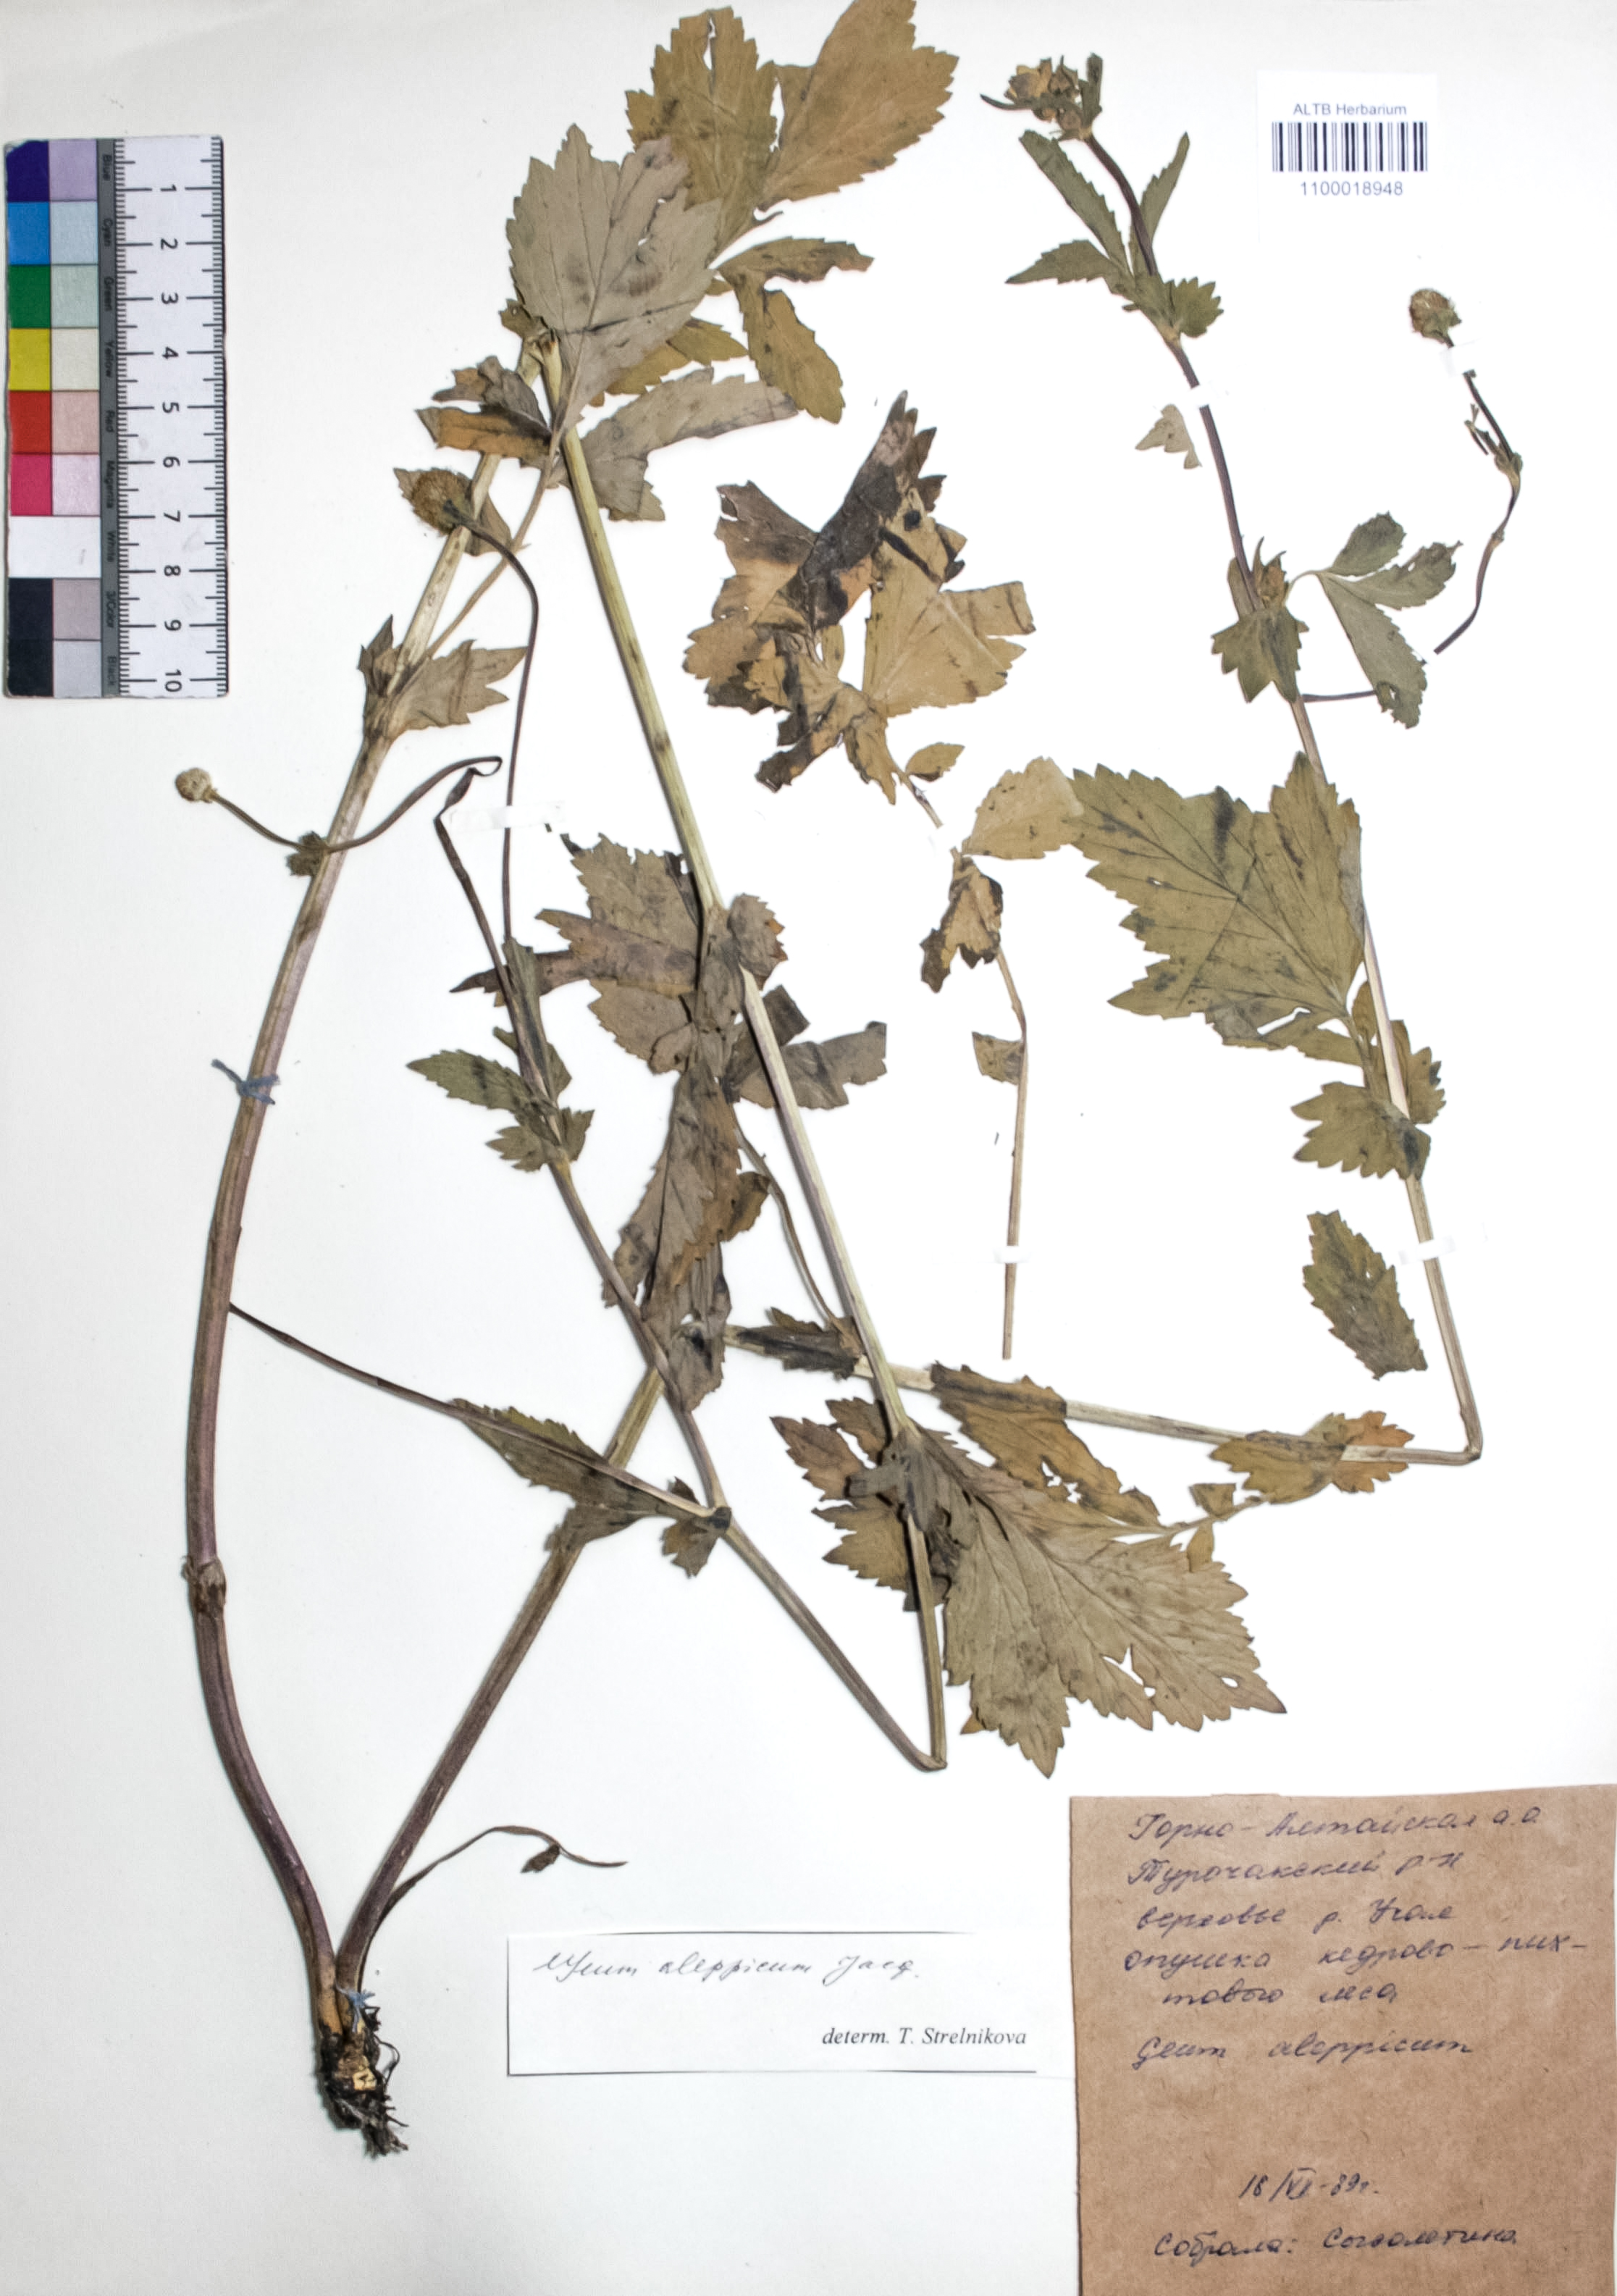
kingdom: Plantae
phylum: Tracheophyta
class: Magnoliopsida
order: Rosales
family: Rosaceae
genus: Geum
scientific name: Geum aleppicum
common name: Yellow avens
